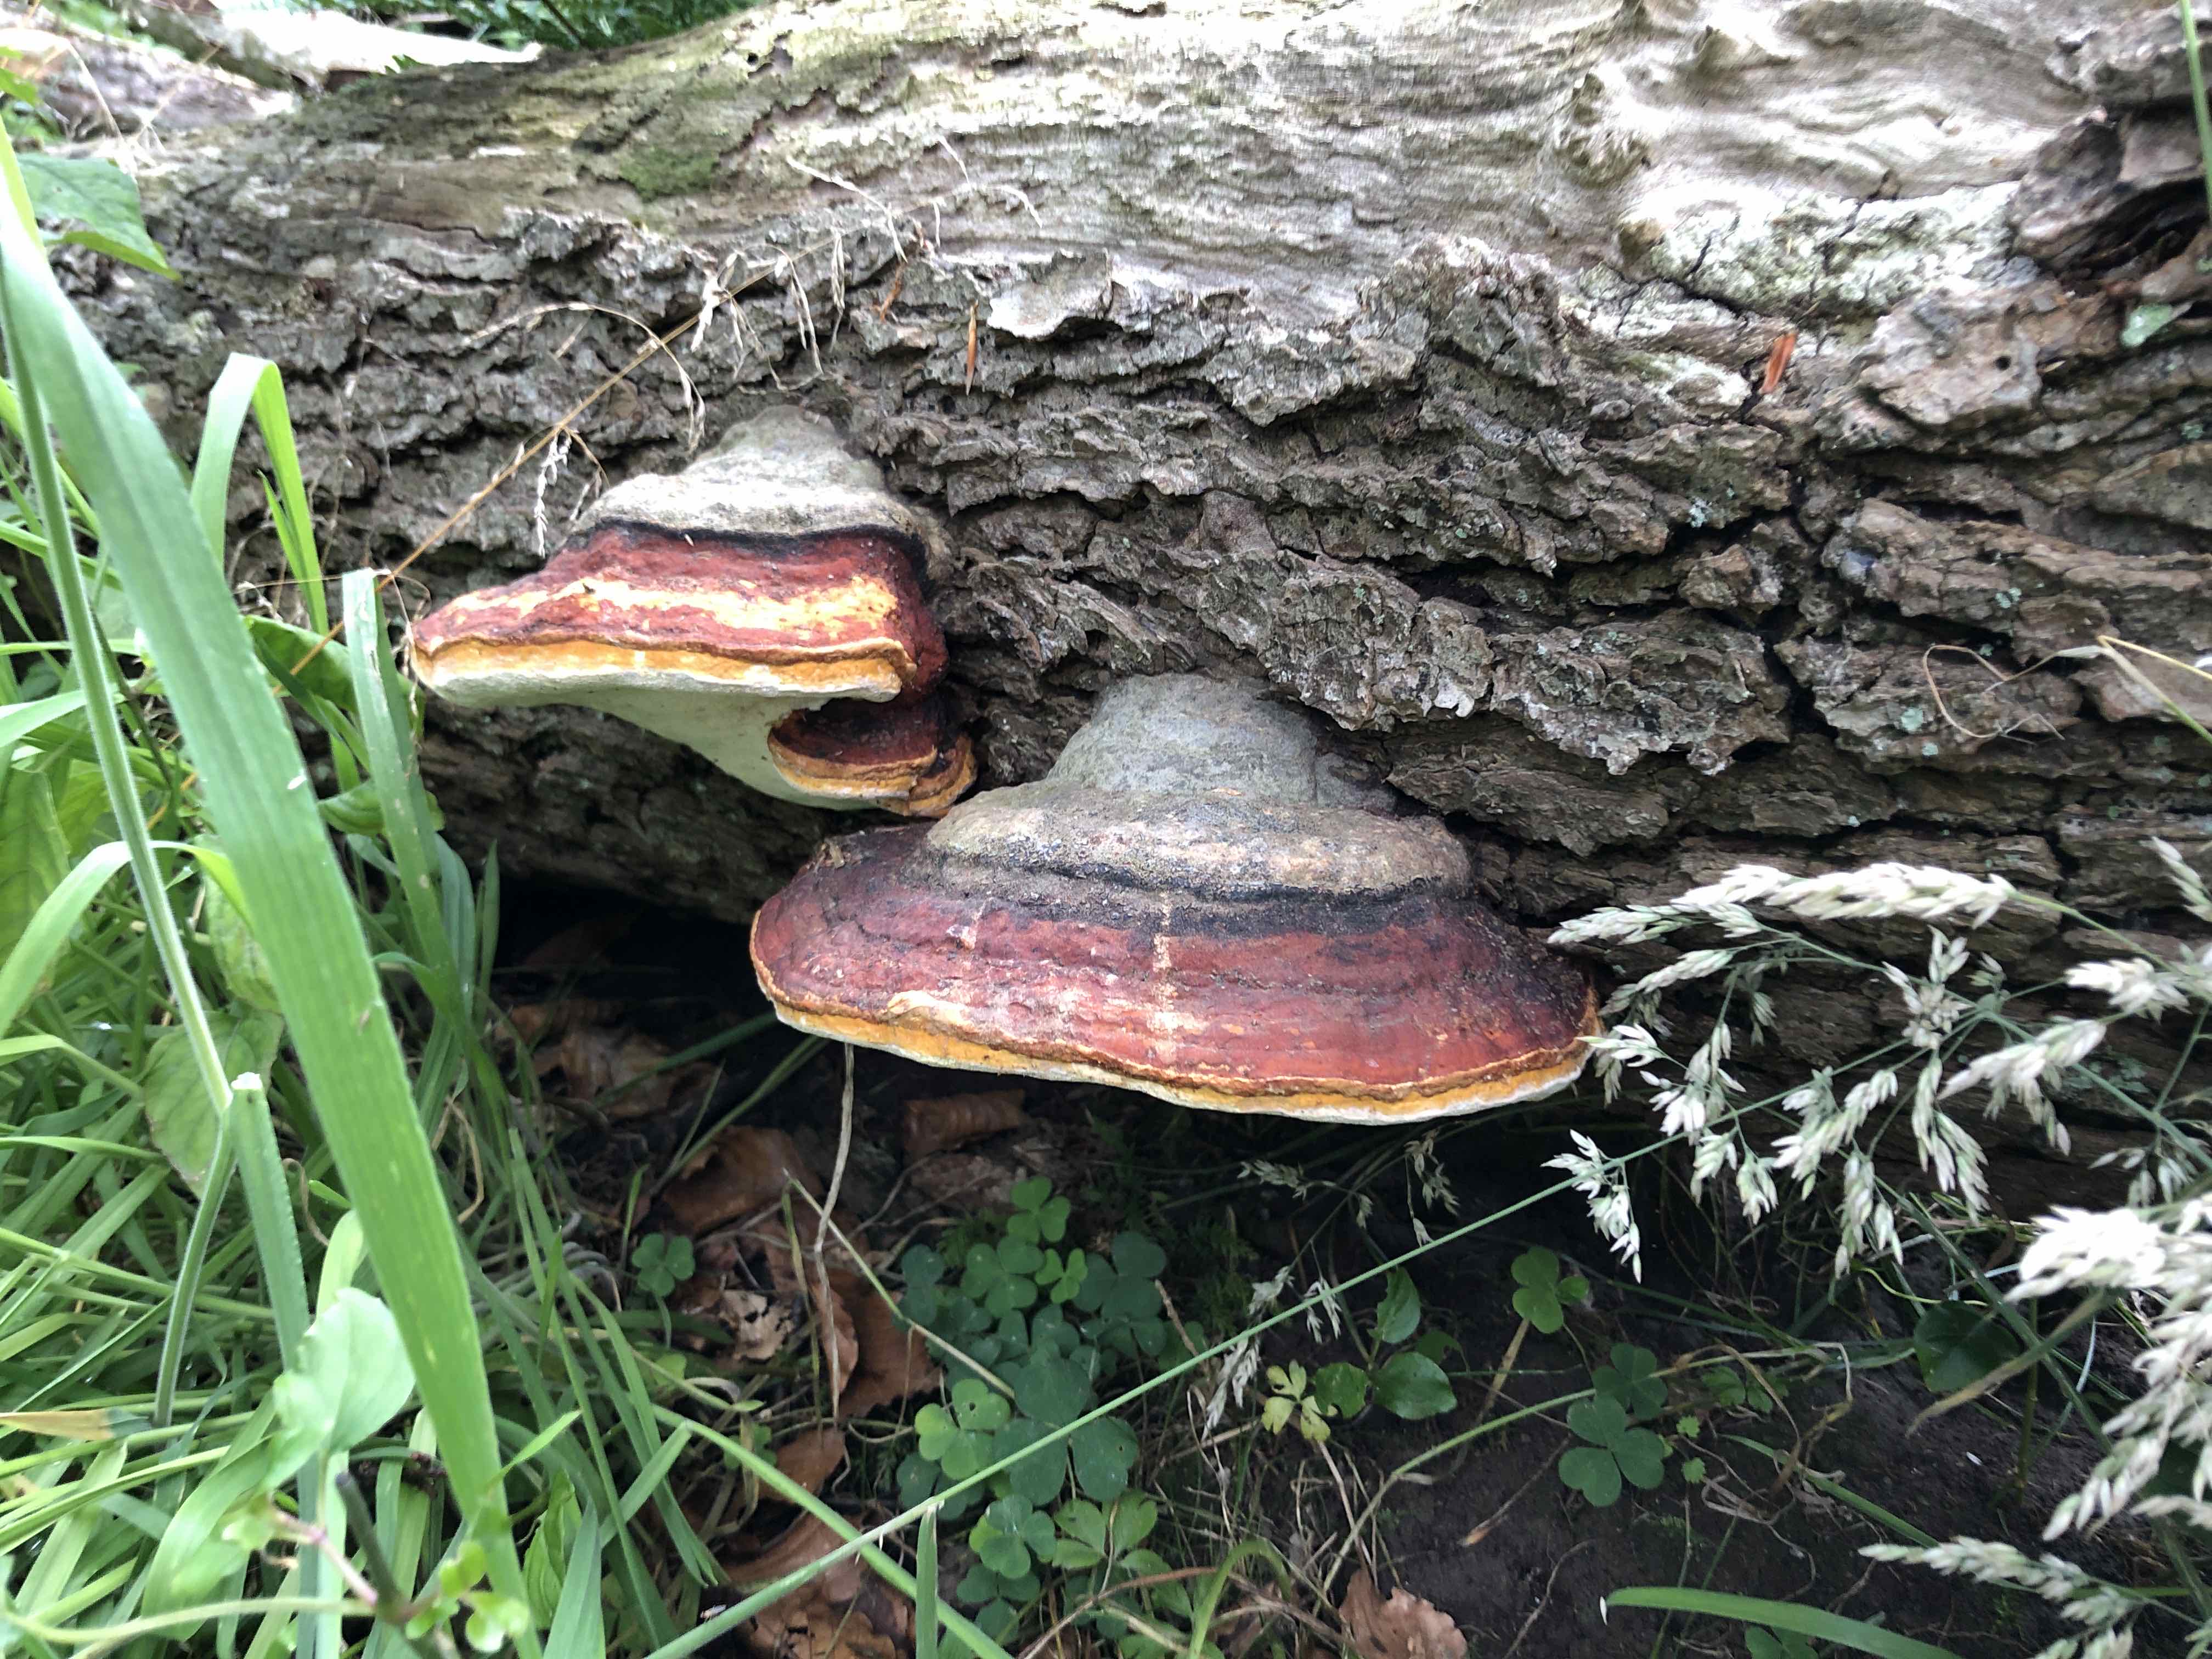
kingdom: Fungi
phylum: Basidiomycota
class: Agaricomycetes
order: Polyporales
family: Fomitopsidaceae
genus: Fomitopsis
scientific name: Fomitopsis pinicola
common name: randbæltet hovporesvamp
